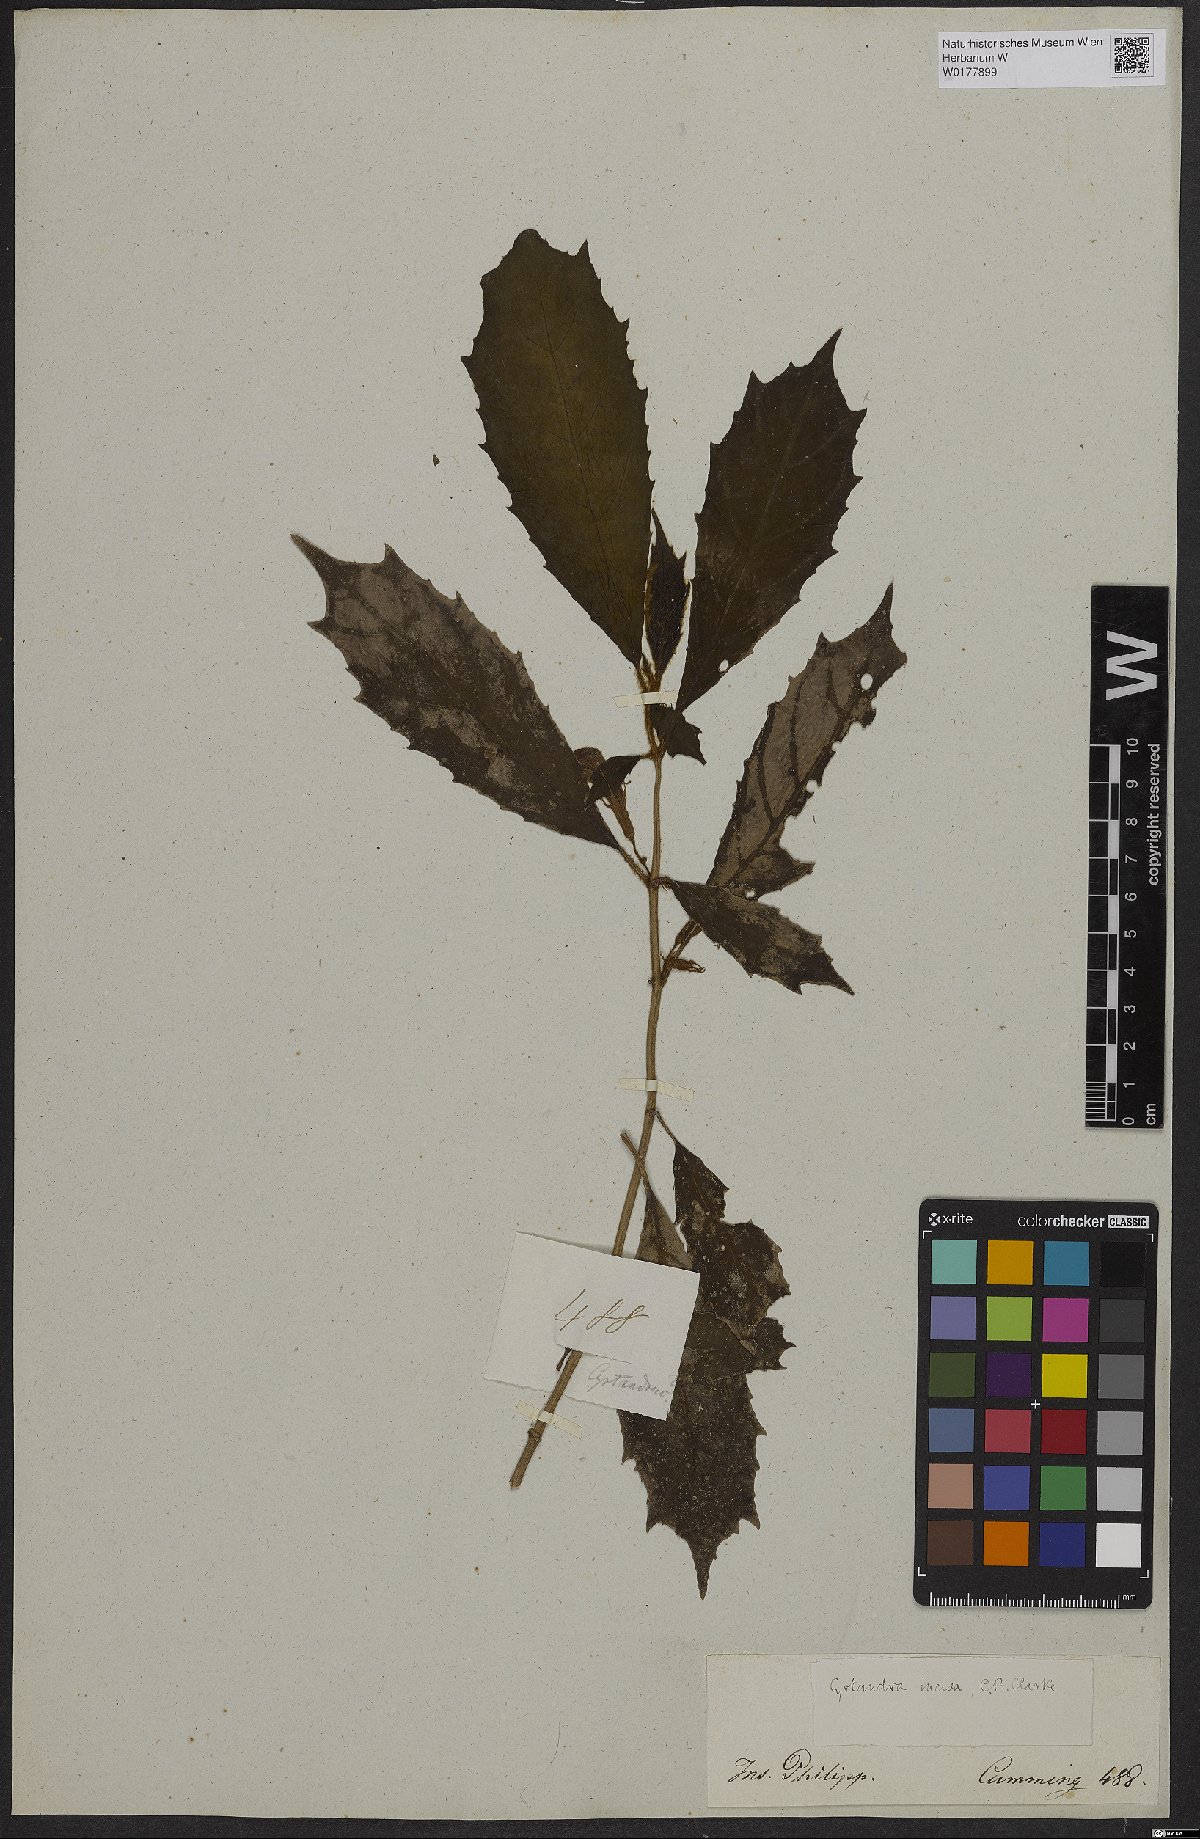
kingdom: Plantae
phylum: Tracheophyta
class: Magnoliopsida
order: Lamiales
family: Gesneriaceae
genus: Cyrtandra
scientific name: Cyrtandra incisa
